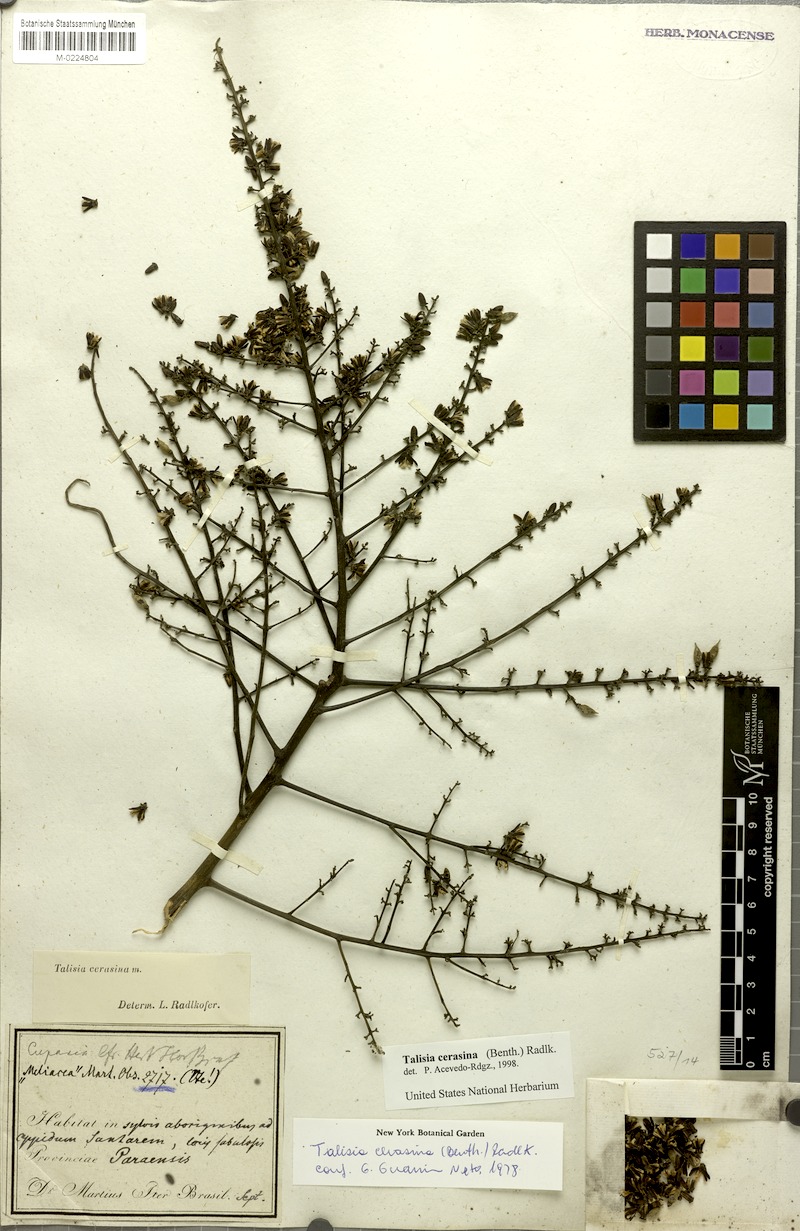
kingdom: Plantae
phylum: Tracheophyta
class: Magnoliopsida
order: Sapindales
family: Sapindaceae
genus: Talisia
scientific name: Talisia cerasina
